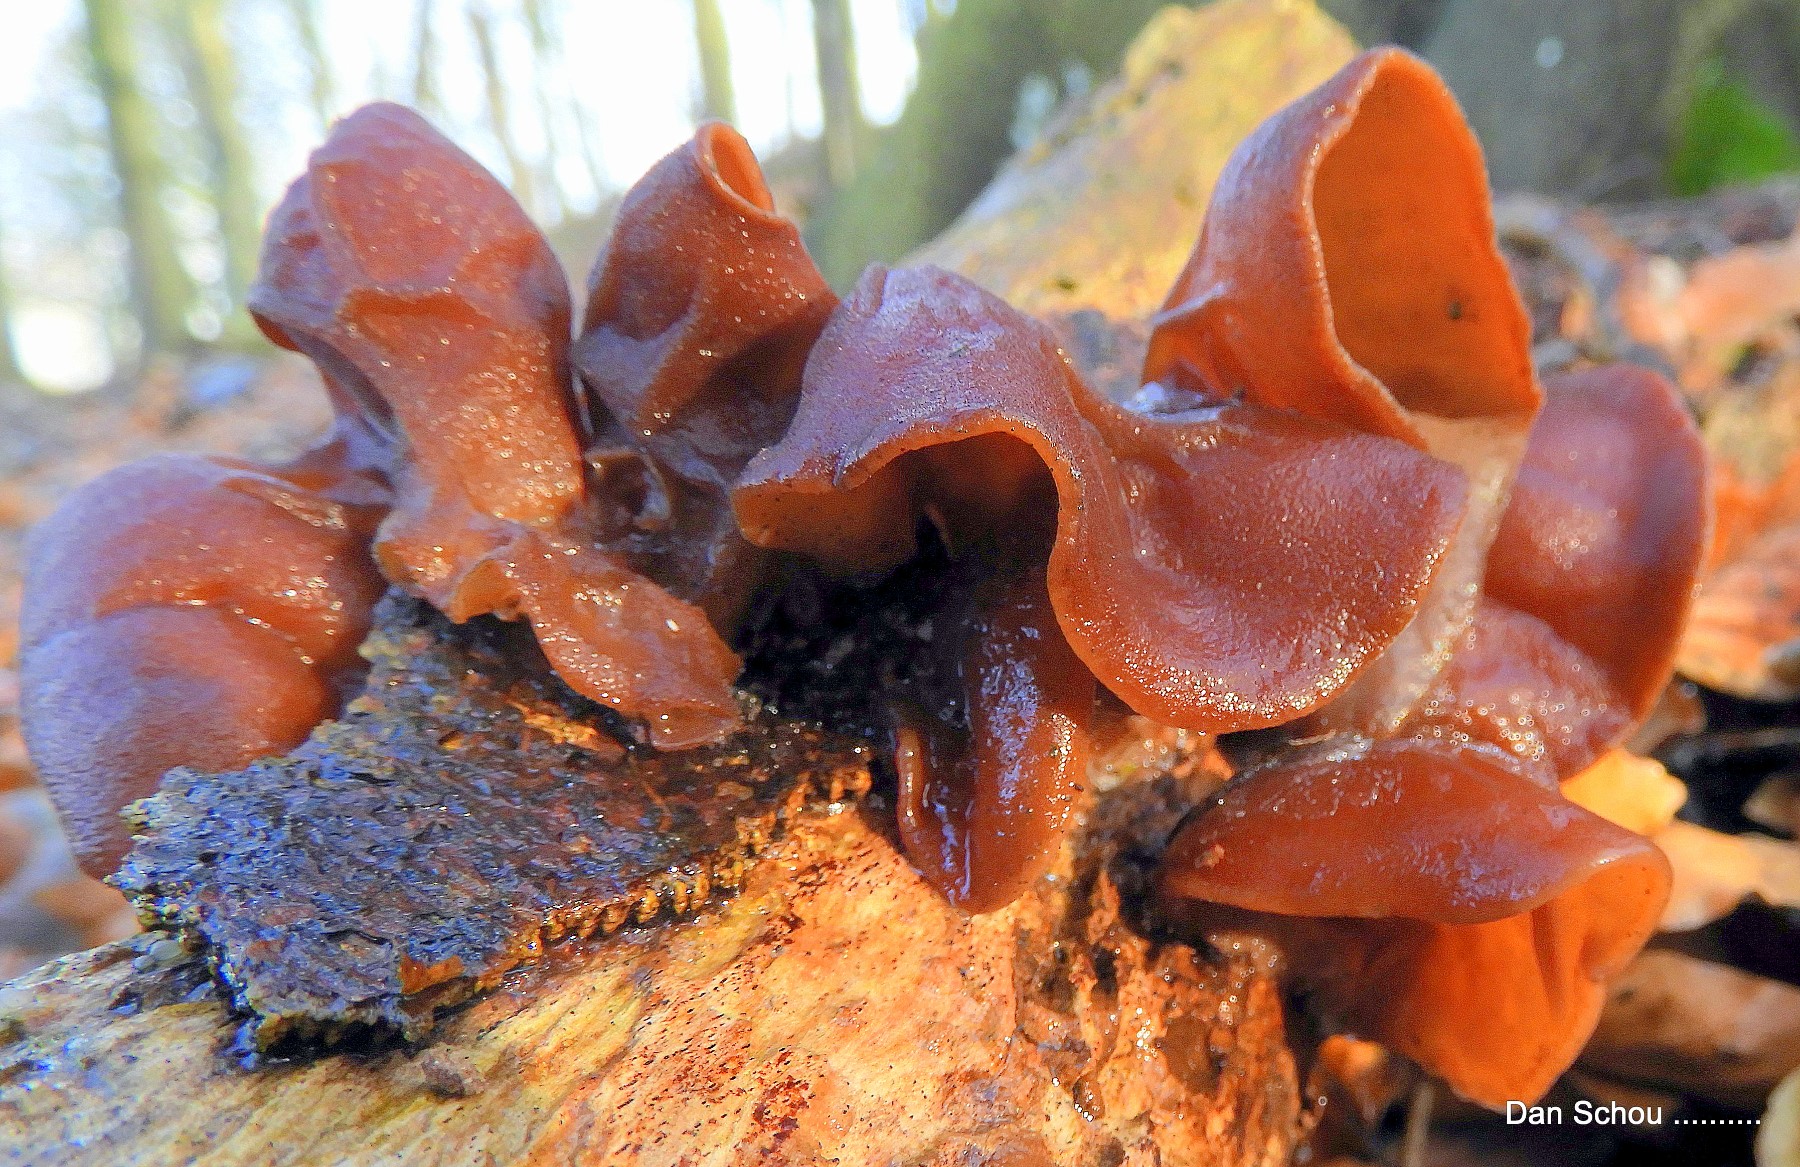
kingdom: Fungi
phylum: Basidiomycota
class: Agaricomycetes
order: Auriculariales
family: Auriculariaceae
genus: Auricularia
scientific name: Auricularia auricula-judae
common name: almindelig judasøre
